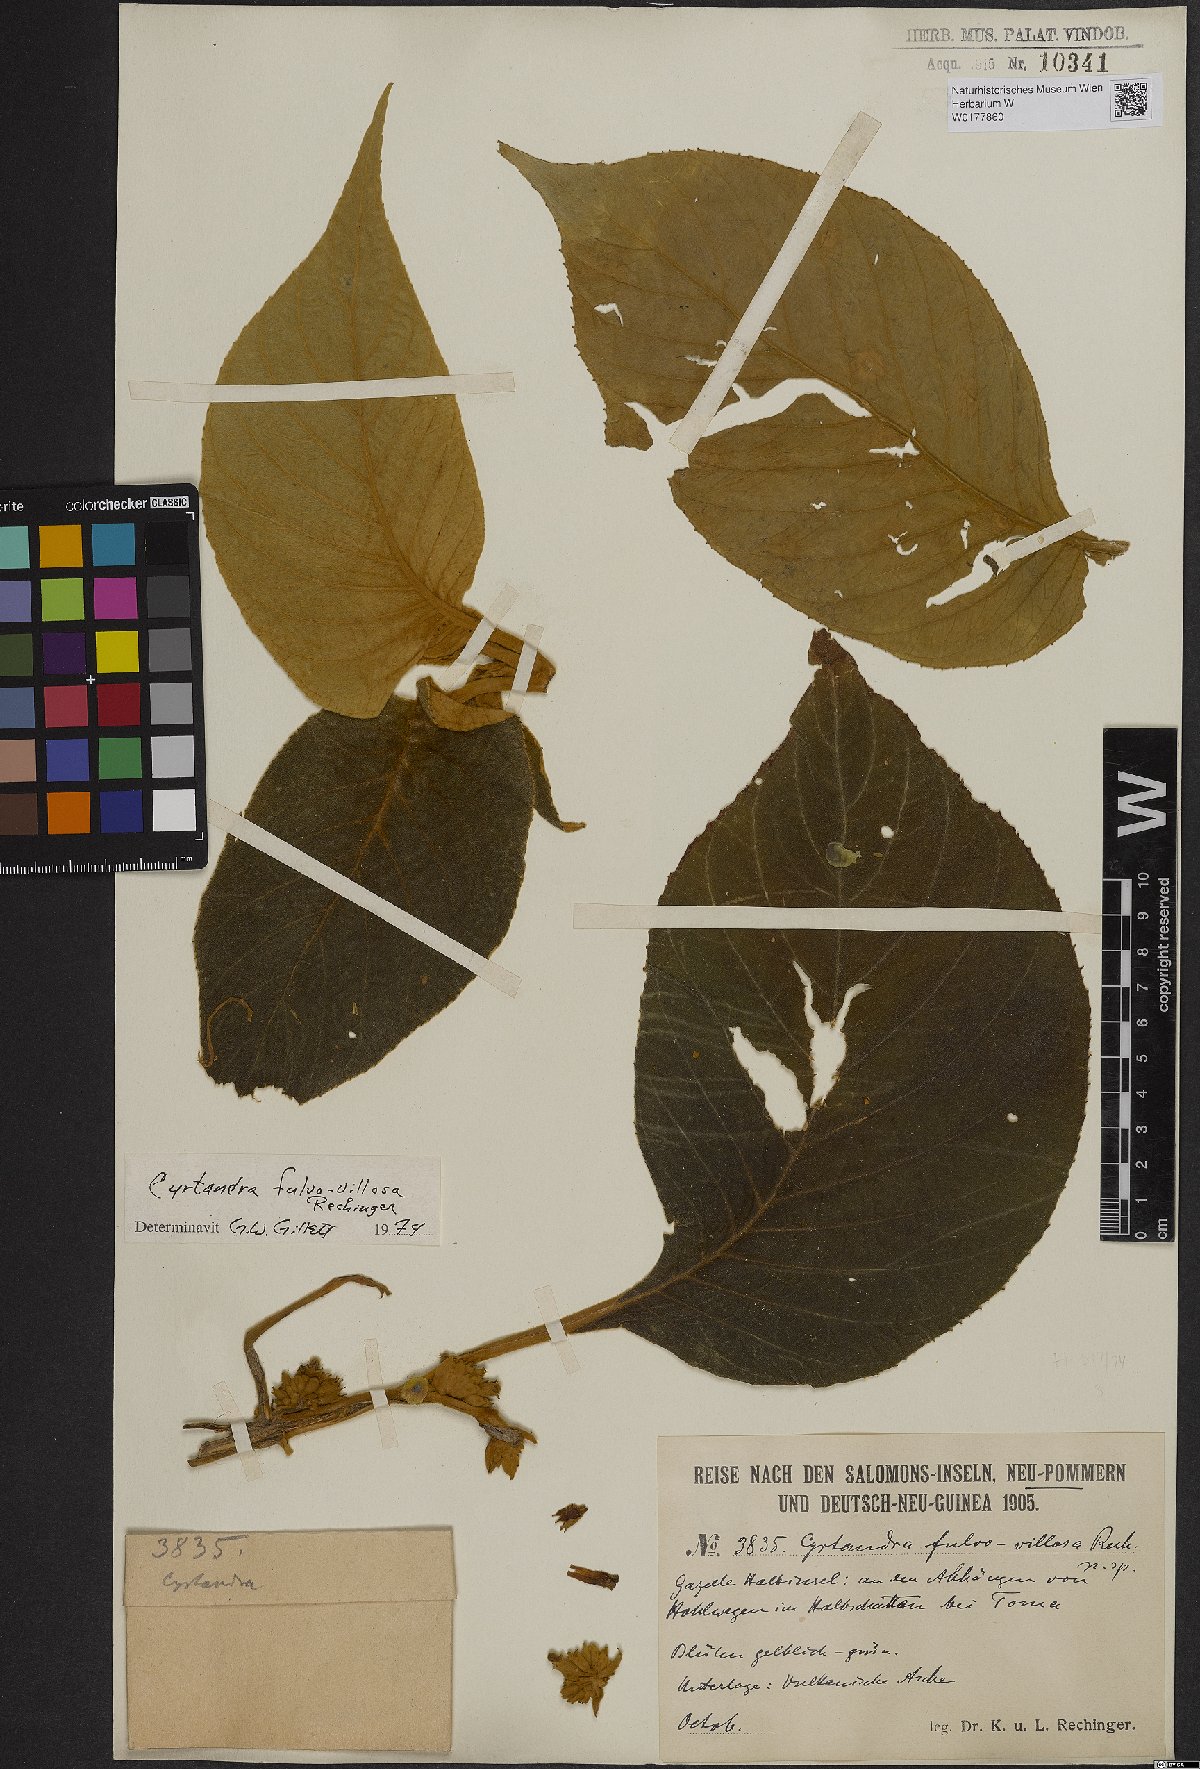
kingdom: Plantae
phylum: Tracheophyta
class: Magnoliopsida
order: Lamiales
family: Gesneriaceae
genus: Cyrtandra
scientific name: Cyrtandra fulvovillosa
